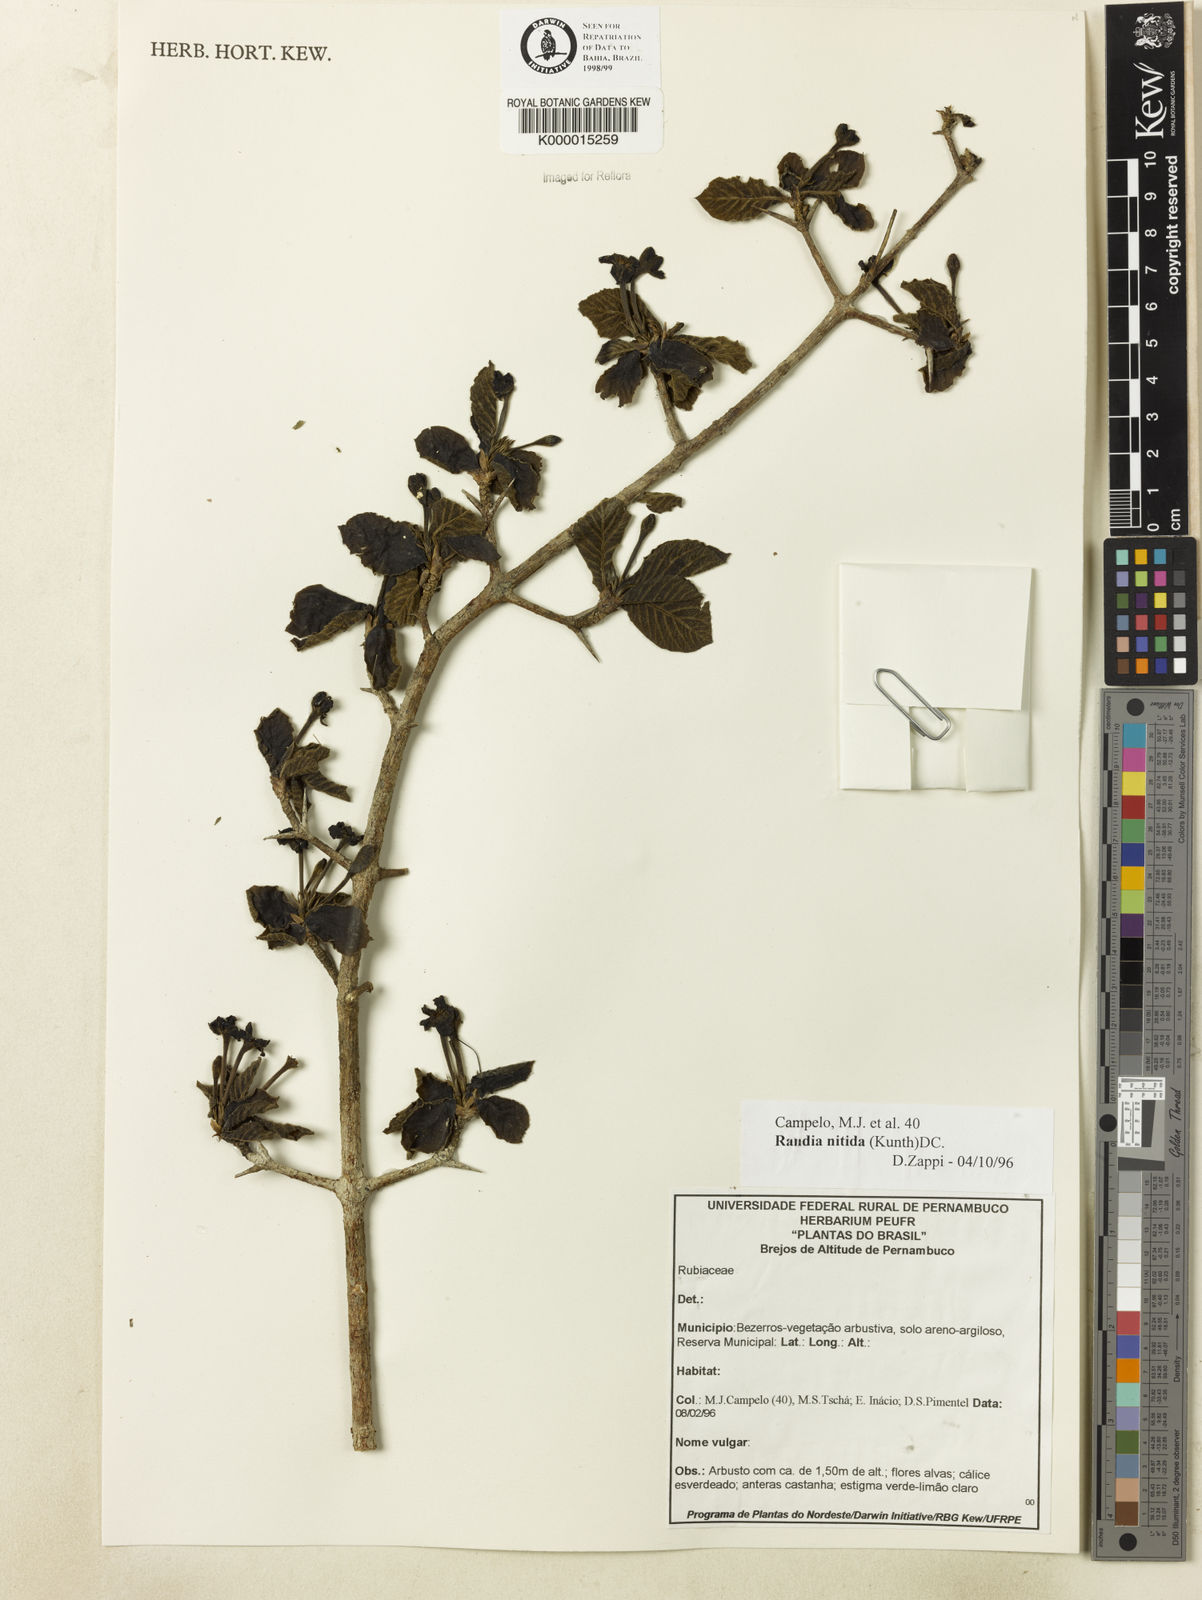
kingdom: Plantae
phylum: Tracheophyta
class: Magnoliopsida
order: Gentianales
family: Rubiaceae
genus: Randia
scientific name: Randia nitida
